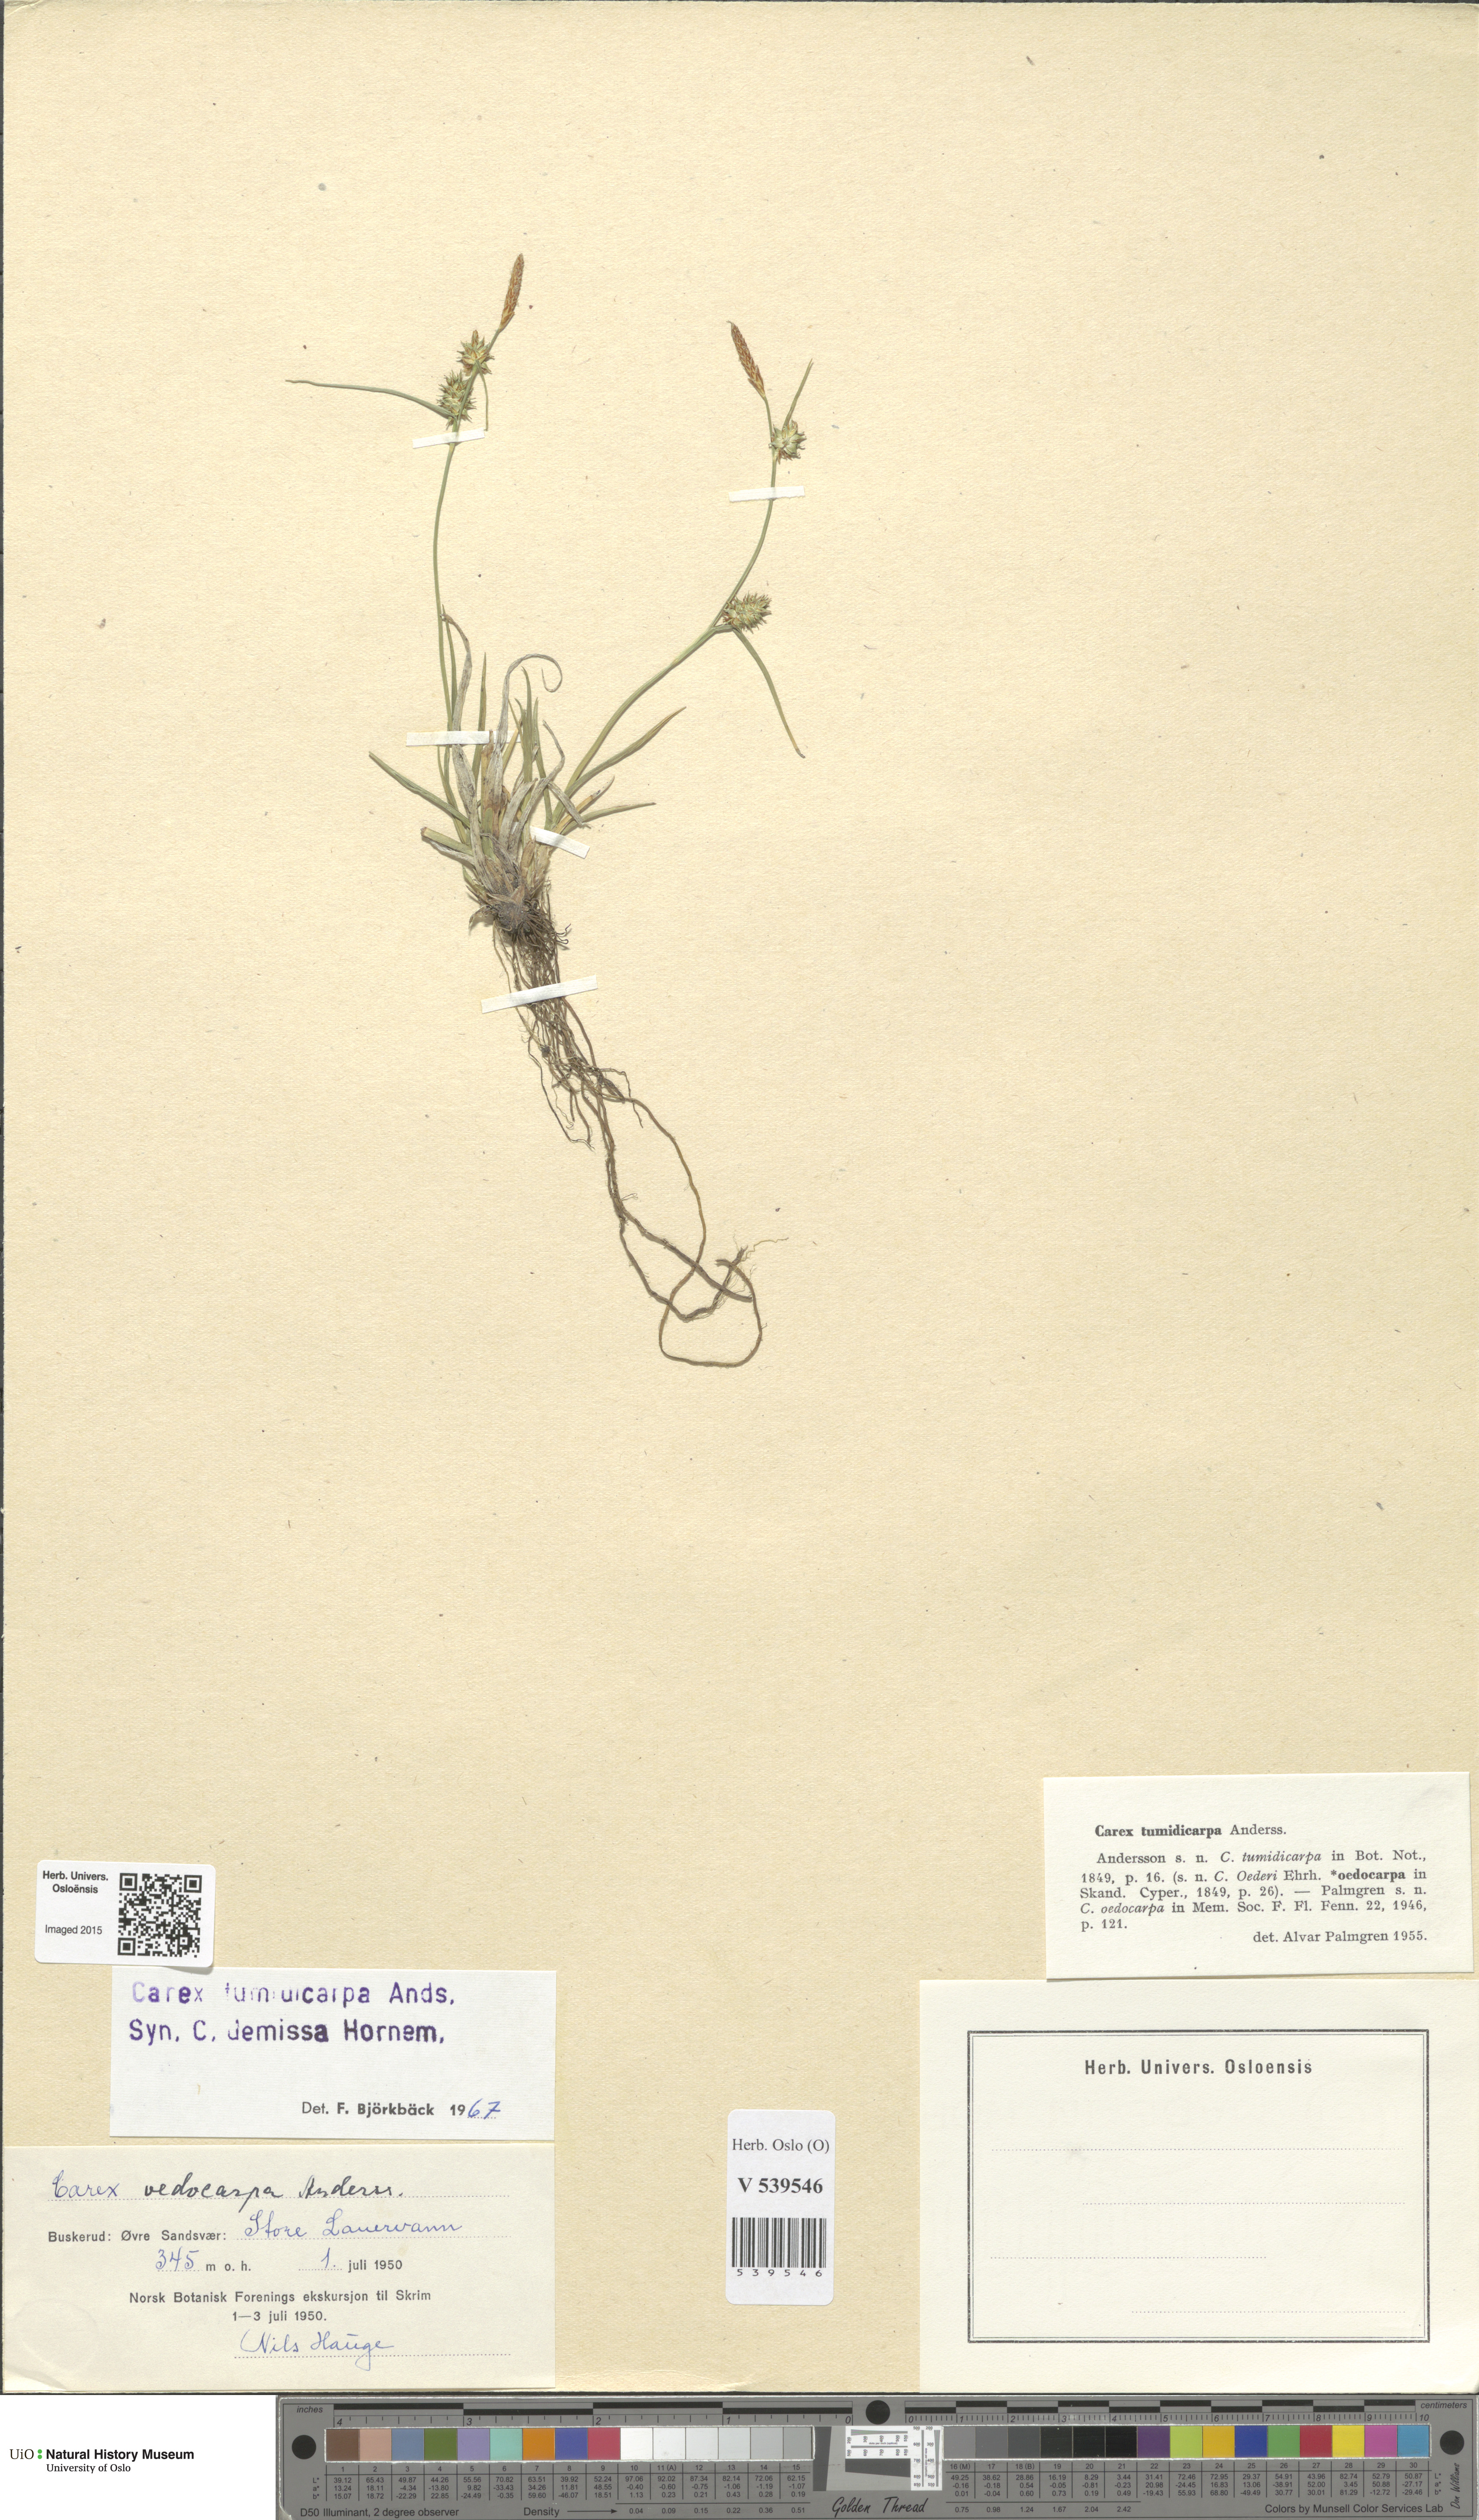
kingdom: Plantae
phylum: Tracheophyta
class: Liliopsida
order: Poales
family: Cyperaceae
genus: Carex
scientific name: Carex demissa
